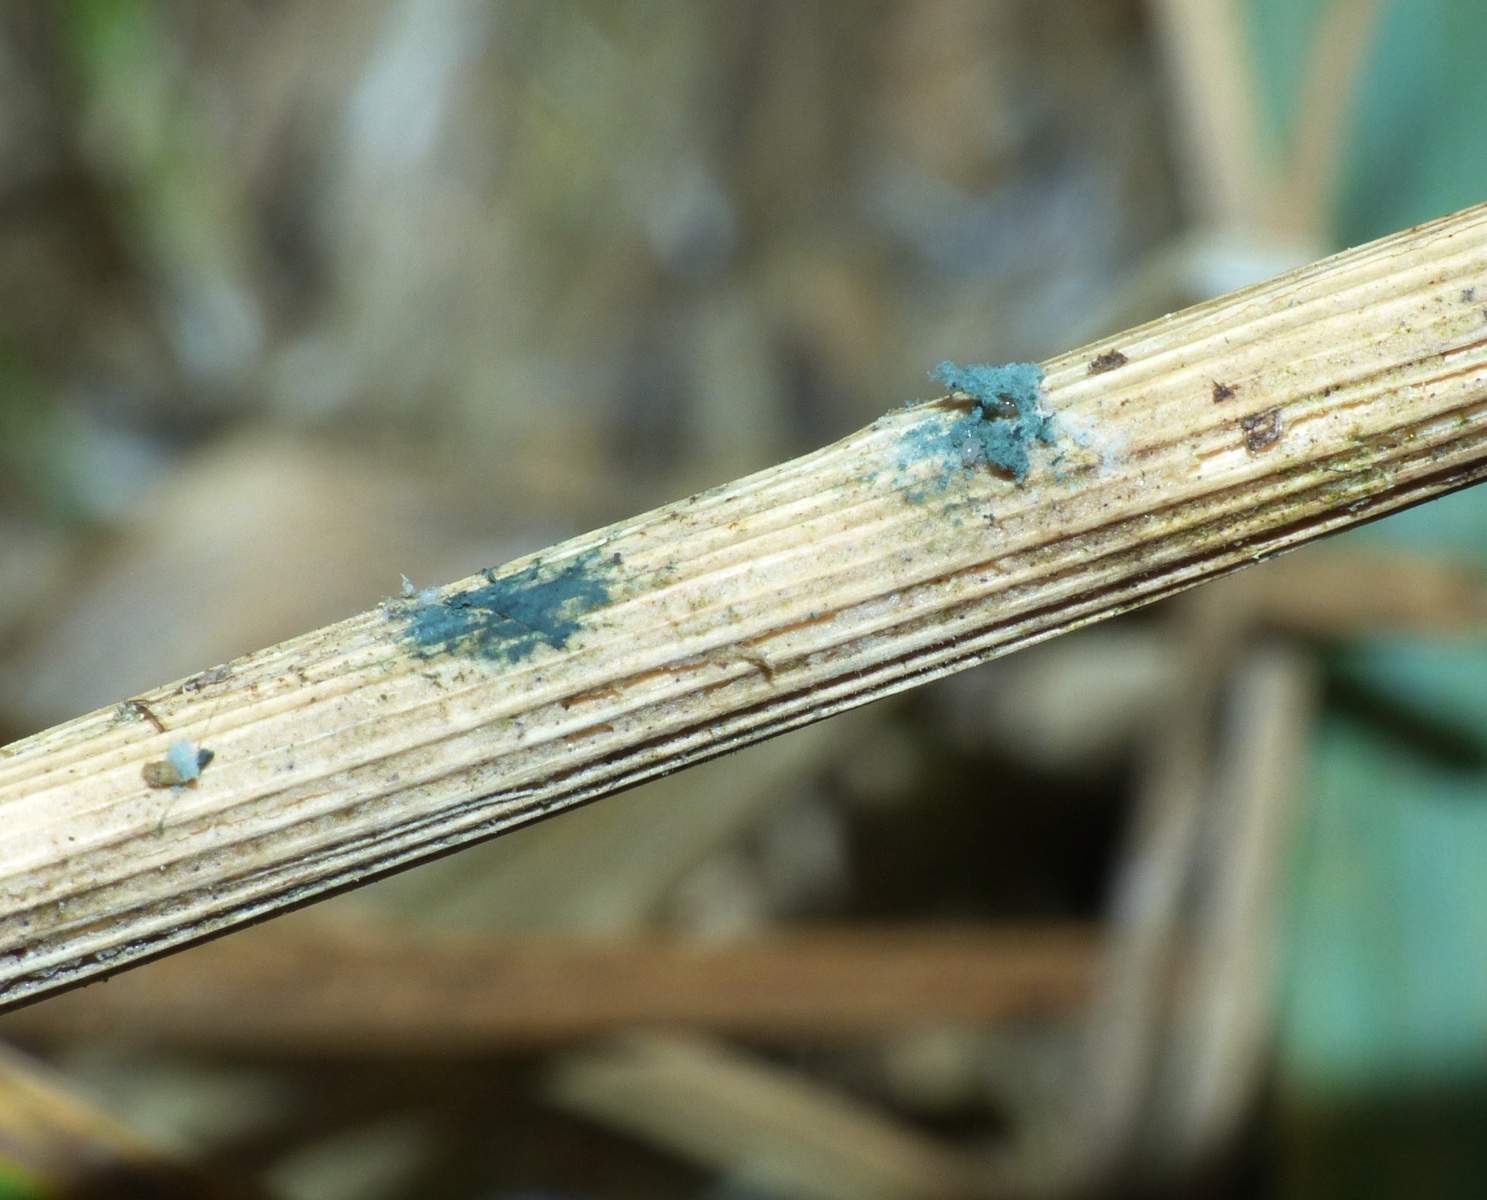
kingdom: Fungi
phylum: Ascomycota
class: Sordariomycetes
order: Hypocreales
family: Hypocreaceae
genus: Trichoderma
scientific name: Trichoderma
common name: kødkerne
